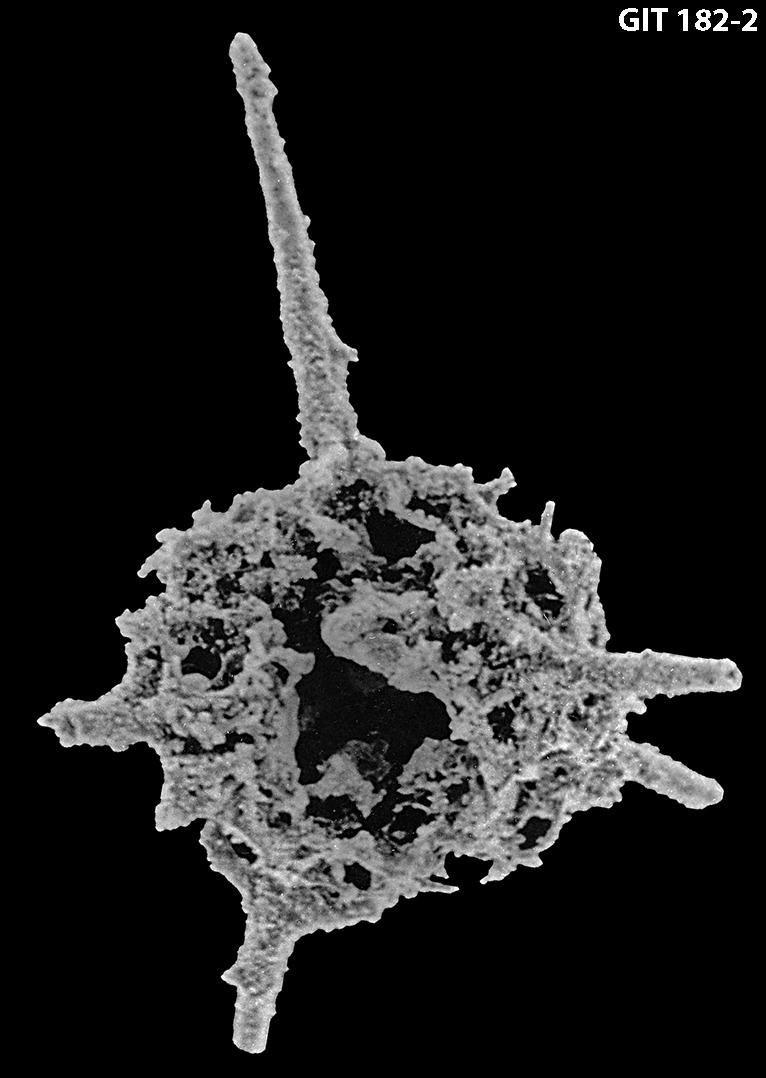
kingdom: Animalia
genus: Entactinia
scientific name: Entactinia
